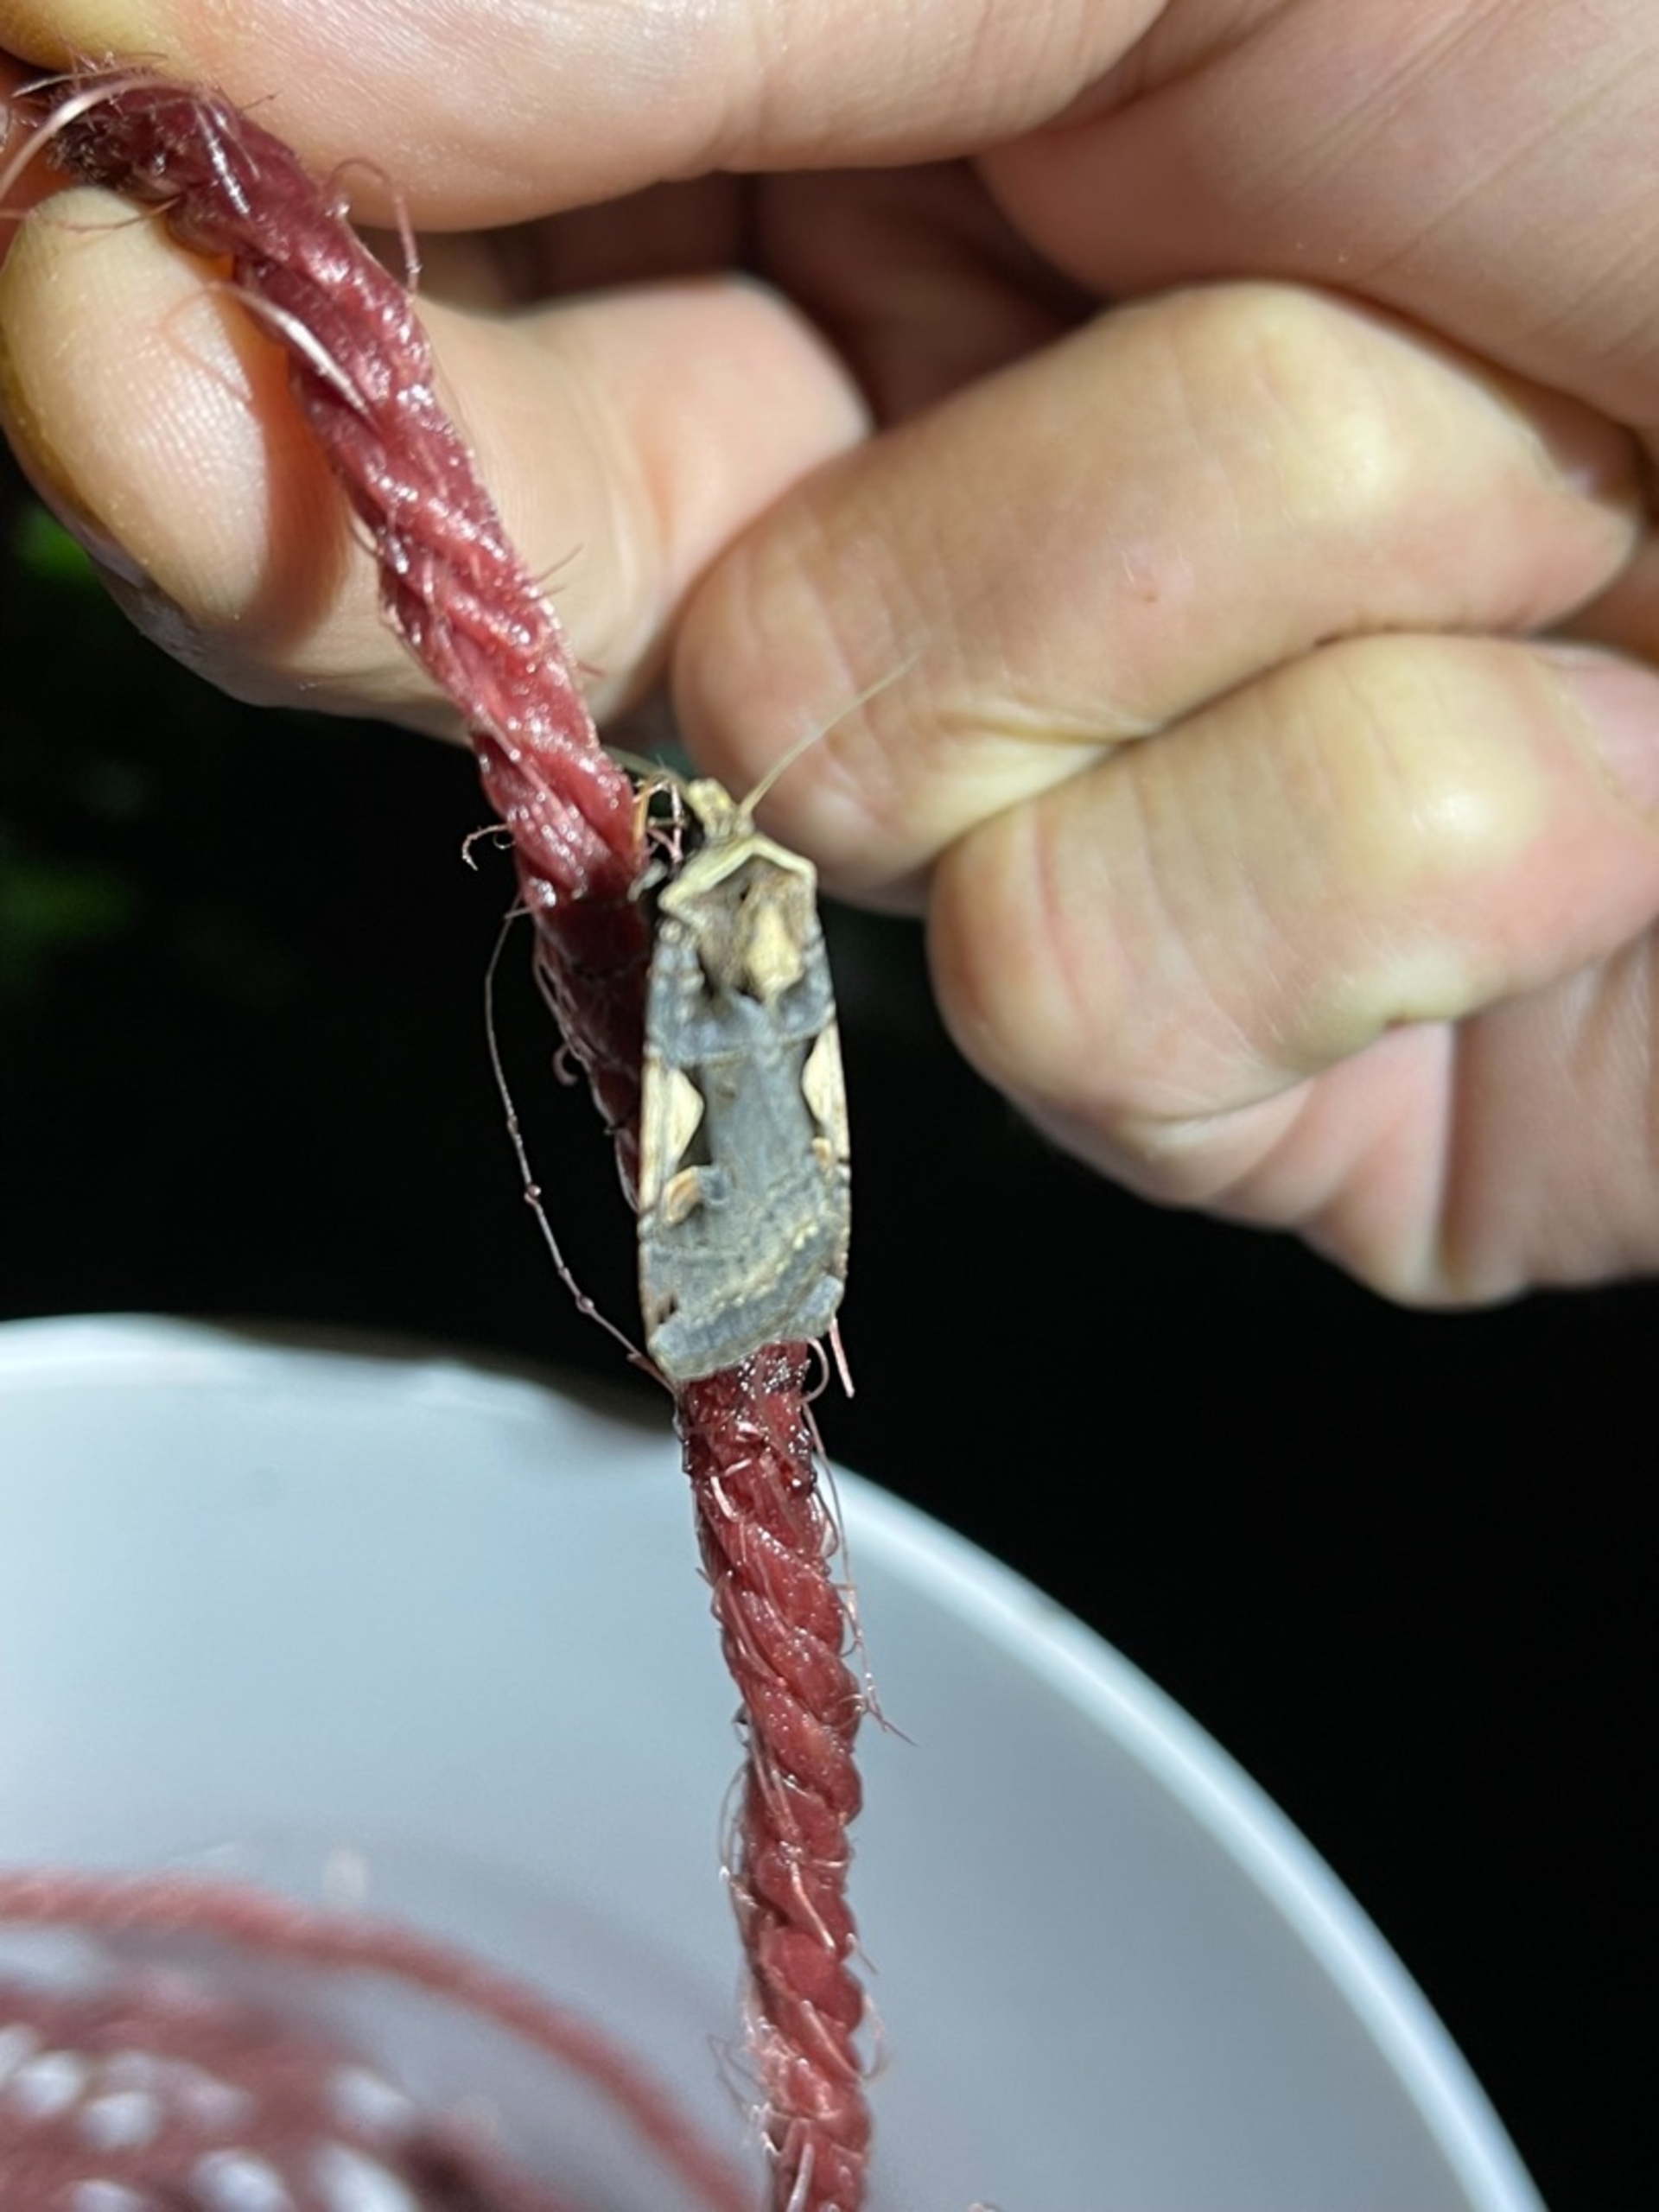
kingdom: Animalia
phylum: Arthropoda
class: Insecta
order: Lepidoptera
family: Noctuidae
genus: Xestia
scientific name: Xestia c-nigrum
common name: Det sorte c
